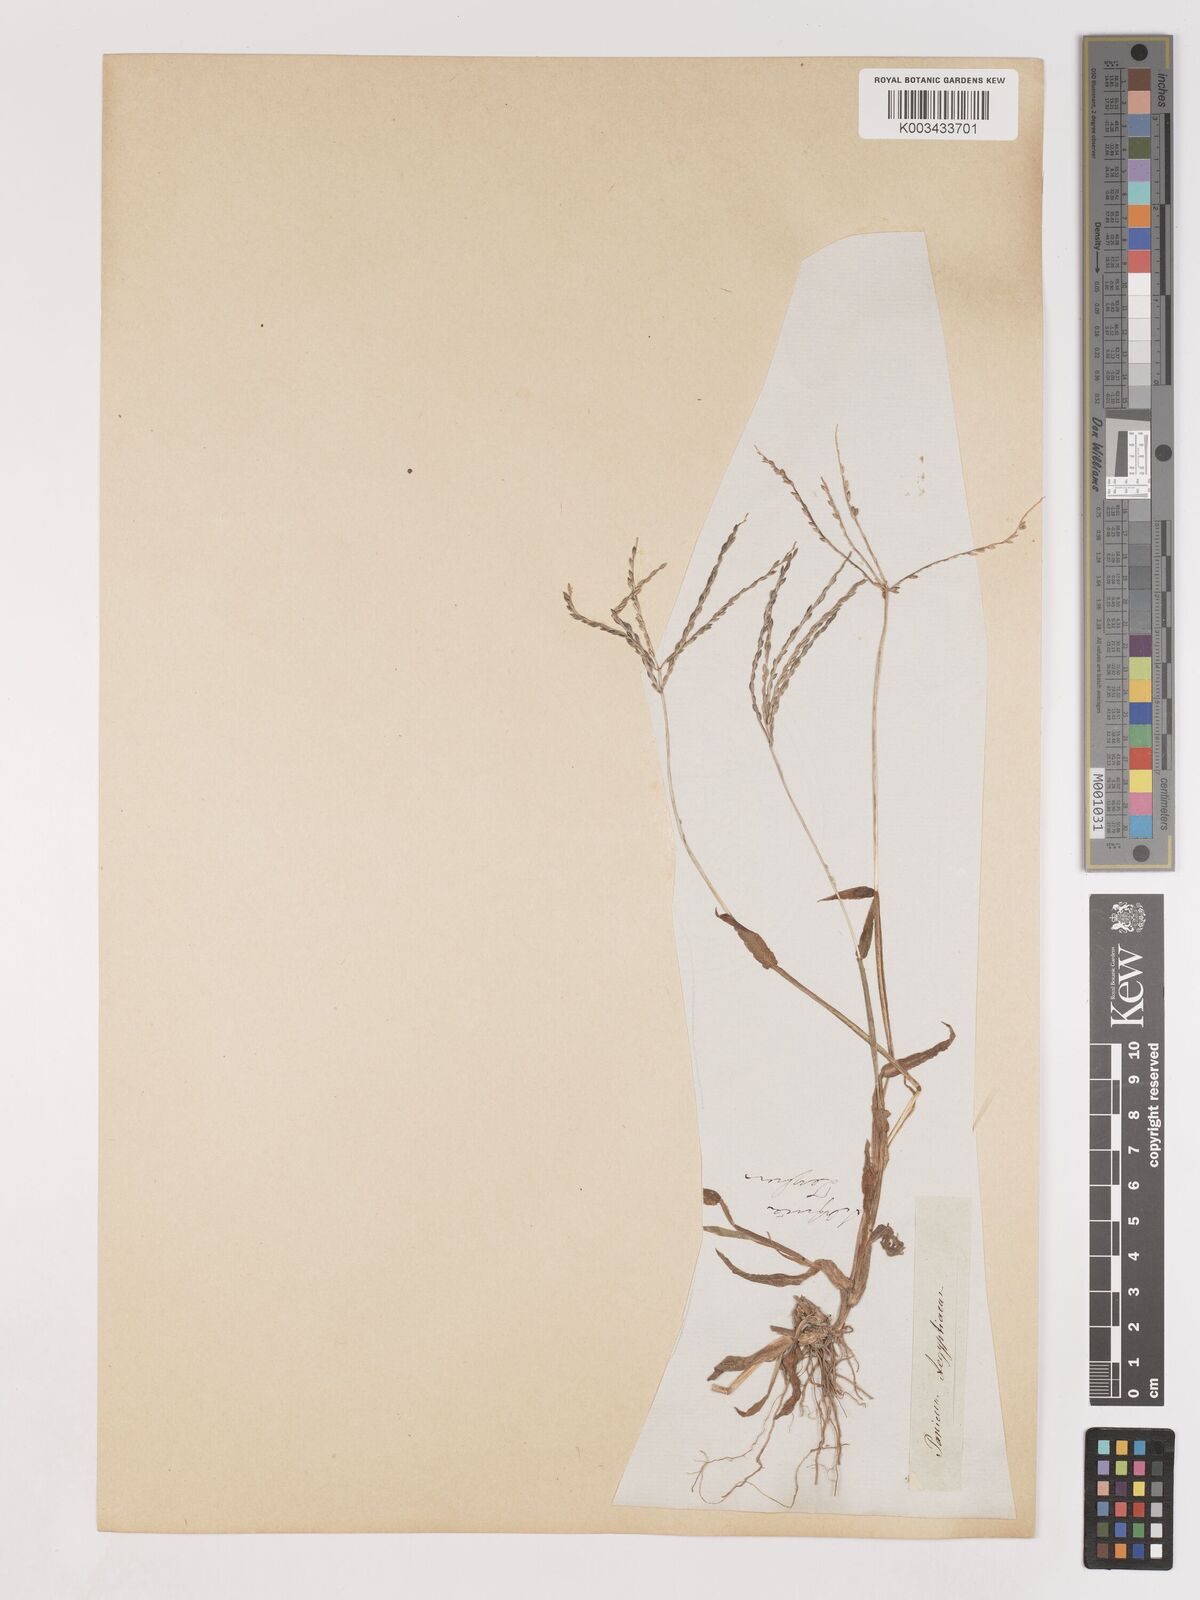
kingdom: Plantae
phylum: Tracheophyta
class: Liliopsida
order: Poales
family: Poaceae
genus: Digitaria
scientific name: Digitaria sanguinalis
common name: Hairy crabgrass
